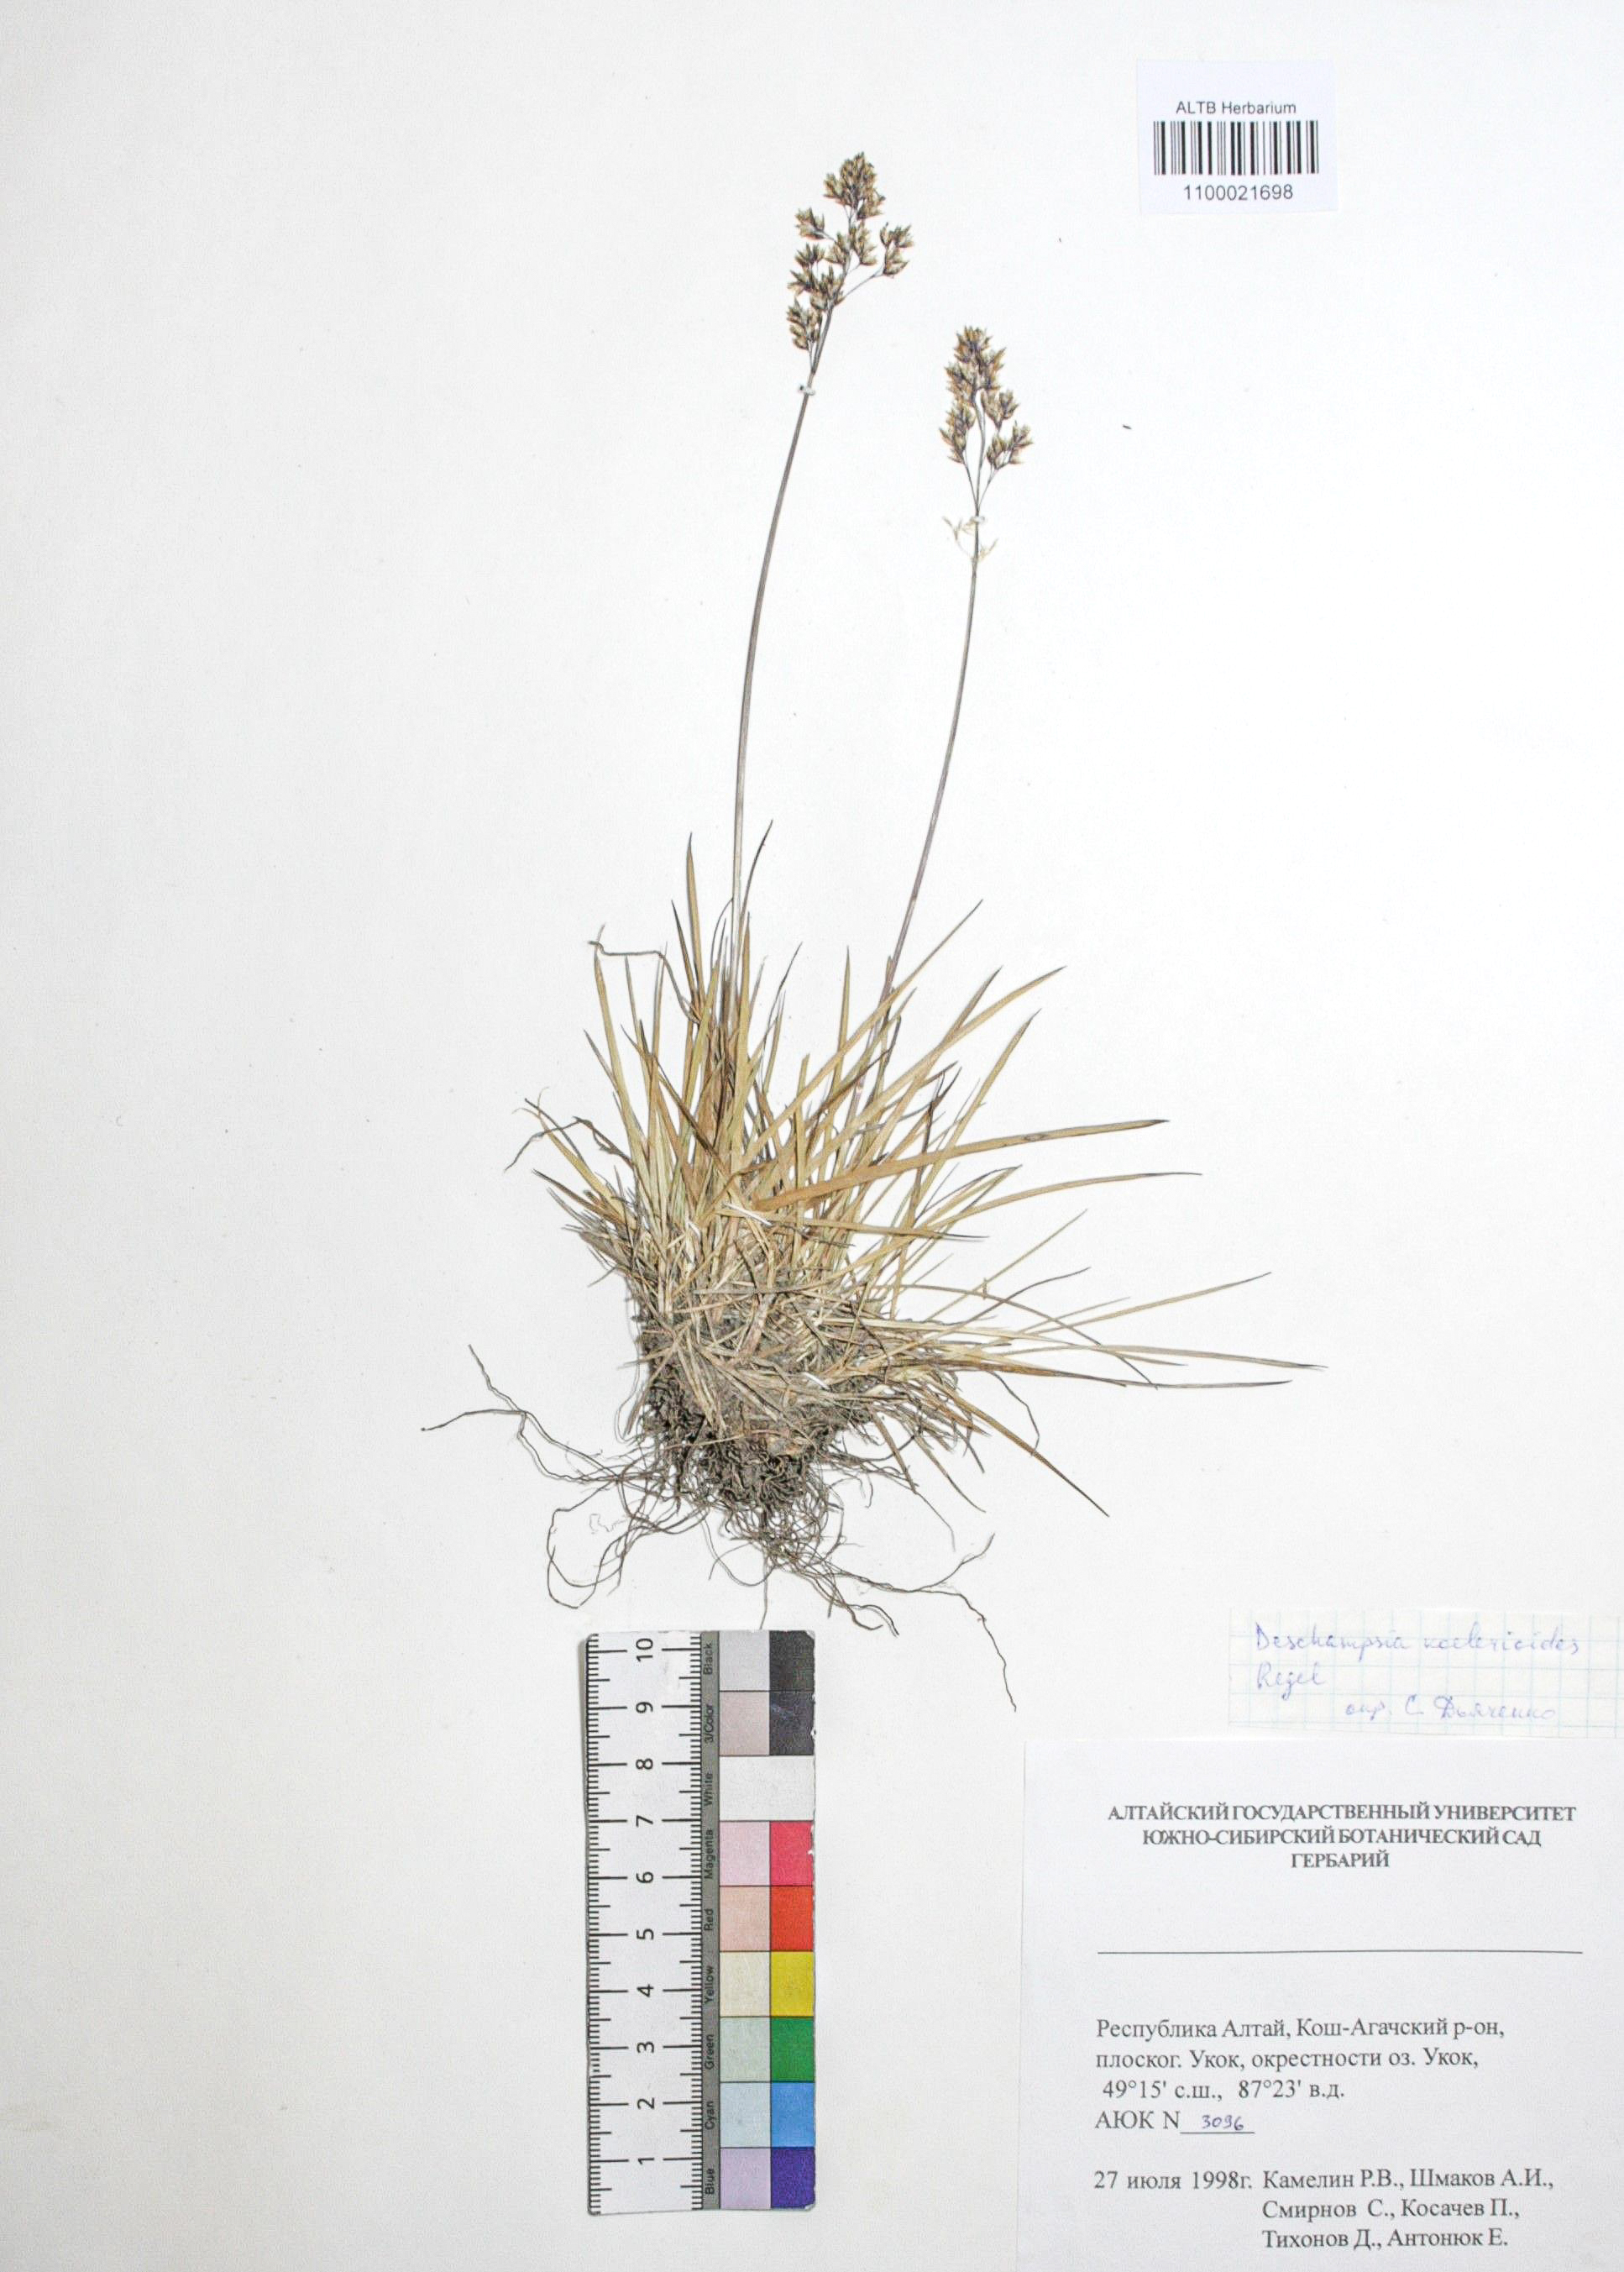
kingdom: Plantae
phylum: Tracheophyta
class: Liliopsida
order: Poales
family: Poaceae
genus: Deschampsia
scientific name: Deschampsia koelerioides
